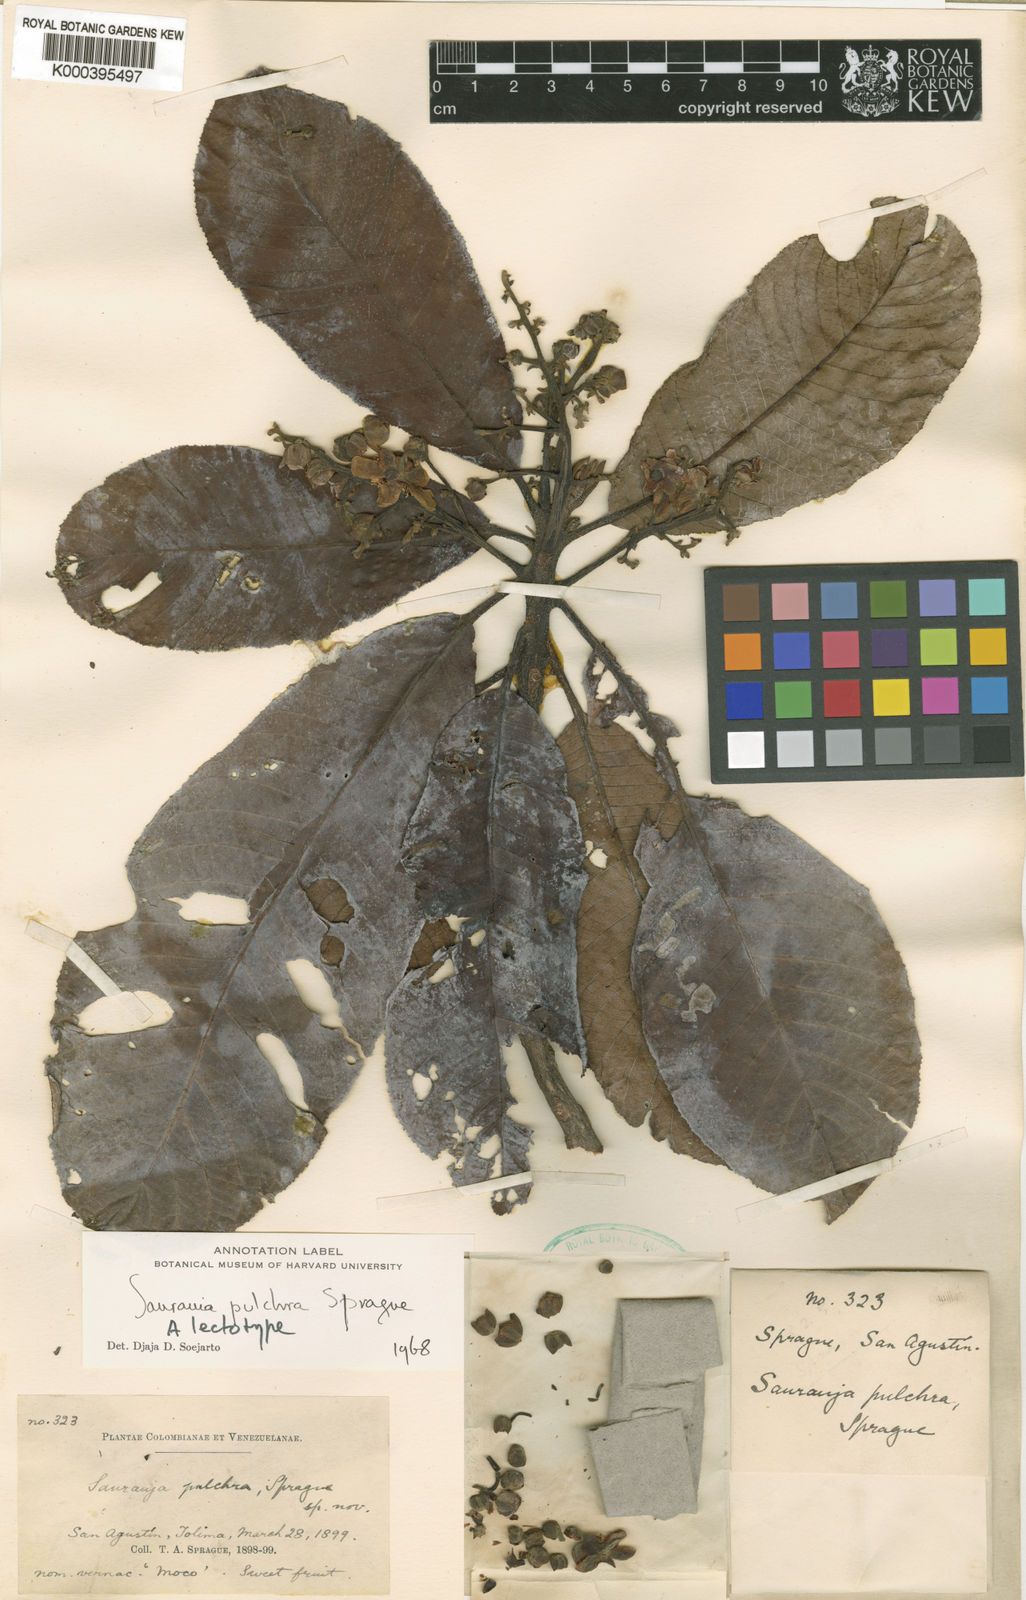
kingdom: Plantae
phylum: Tracheophyta
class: Magnoliopsida
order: Ericales
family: Actinidiaceae
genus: Saurauia
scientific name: Saurauia pulchra
